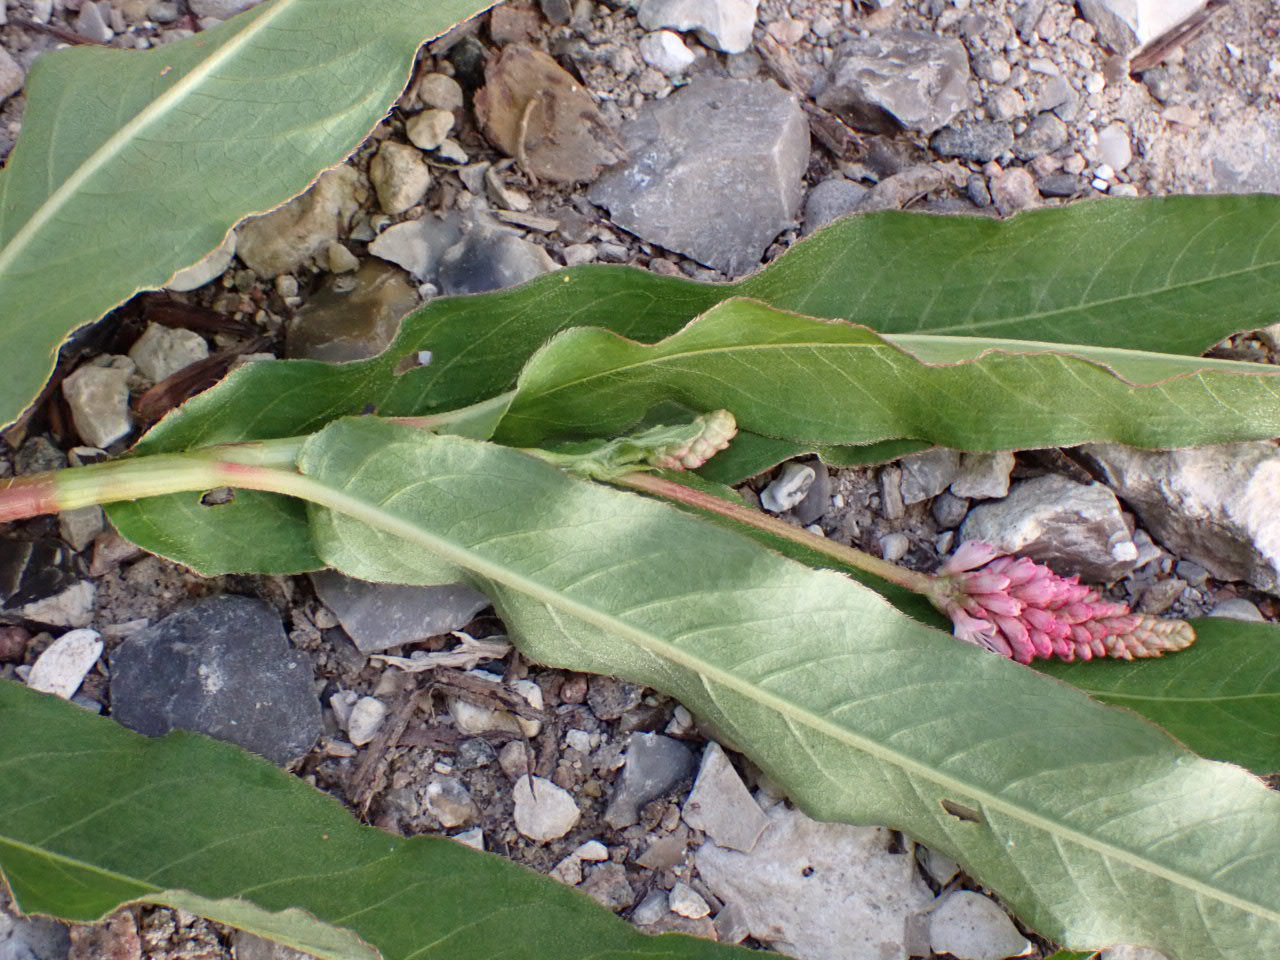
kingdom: Plantae
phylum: Tracheophyta
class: Magnoliopsida
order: Caryophyllales
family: Polygonaceae
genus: Persicaria
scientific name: Persicaria amphibia
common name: Vand-pileurt
